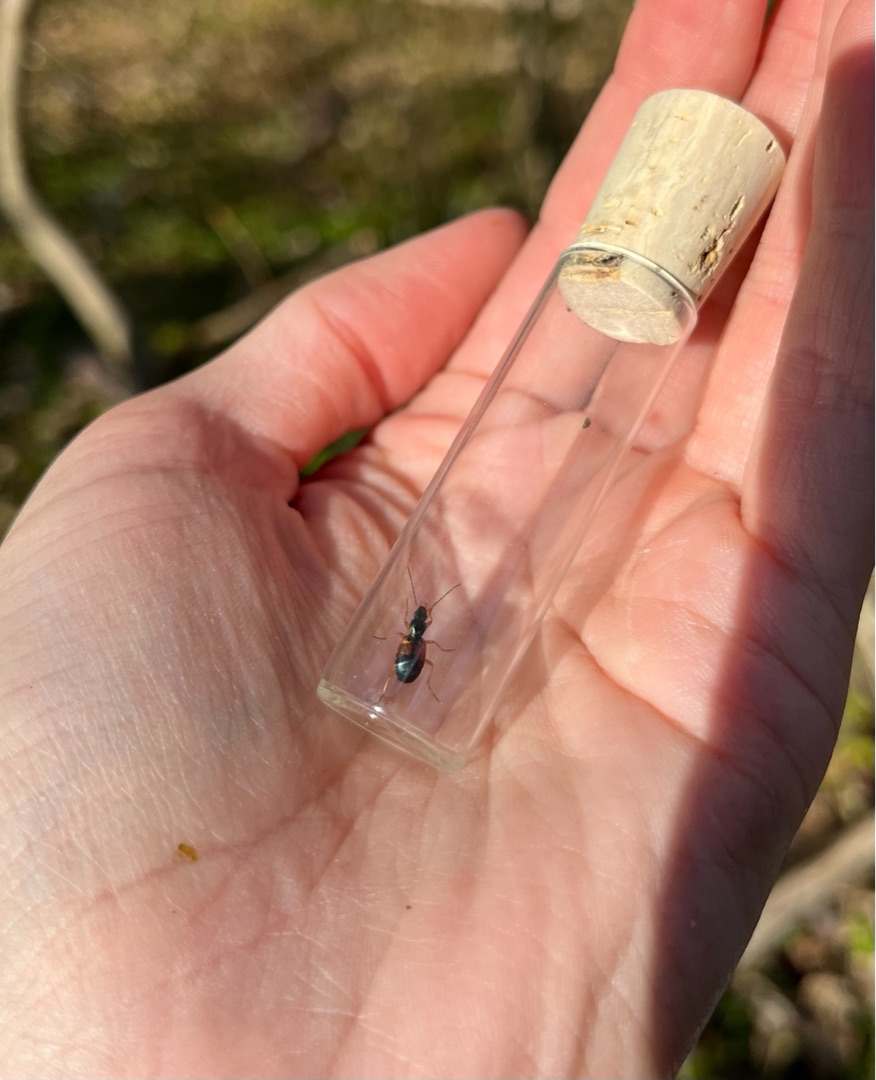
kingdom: Animalia
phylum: Arthropoda
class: Insecta
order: Coleoptera
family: Carabidae
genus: Anchomenus
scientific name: Anchomenus dorsalis
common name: Spraglet kvikløber
